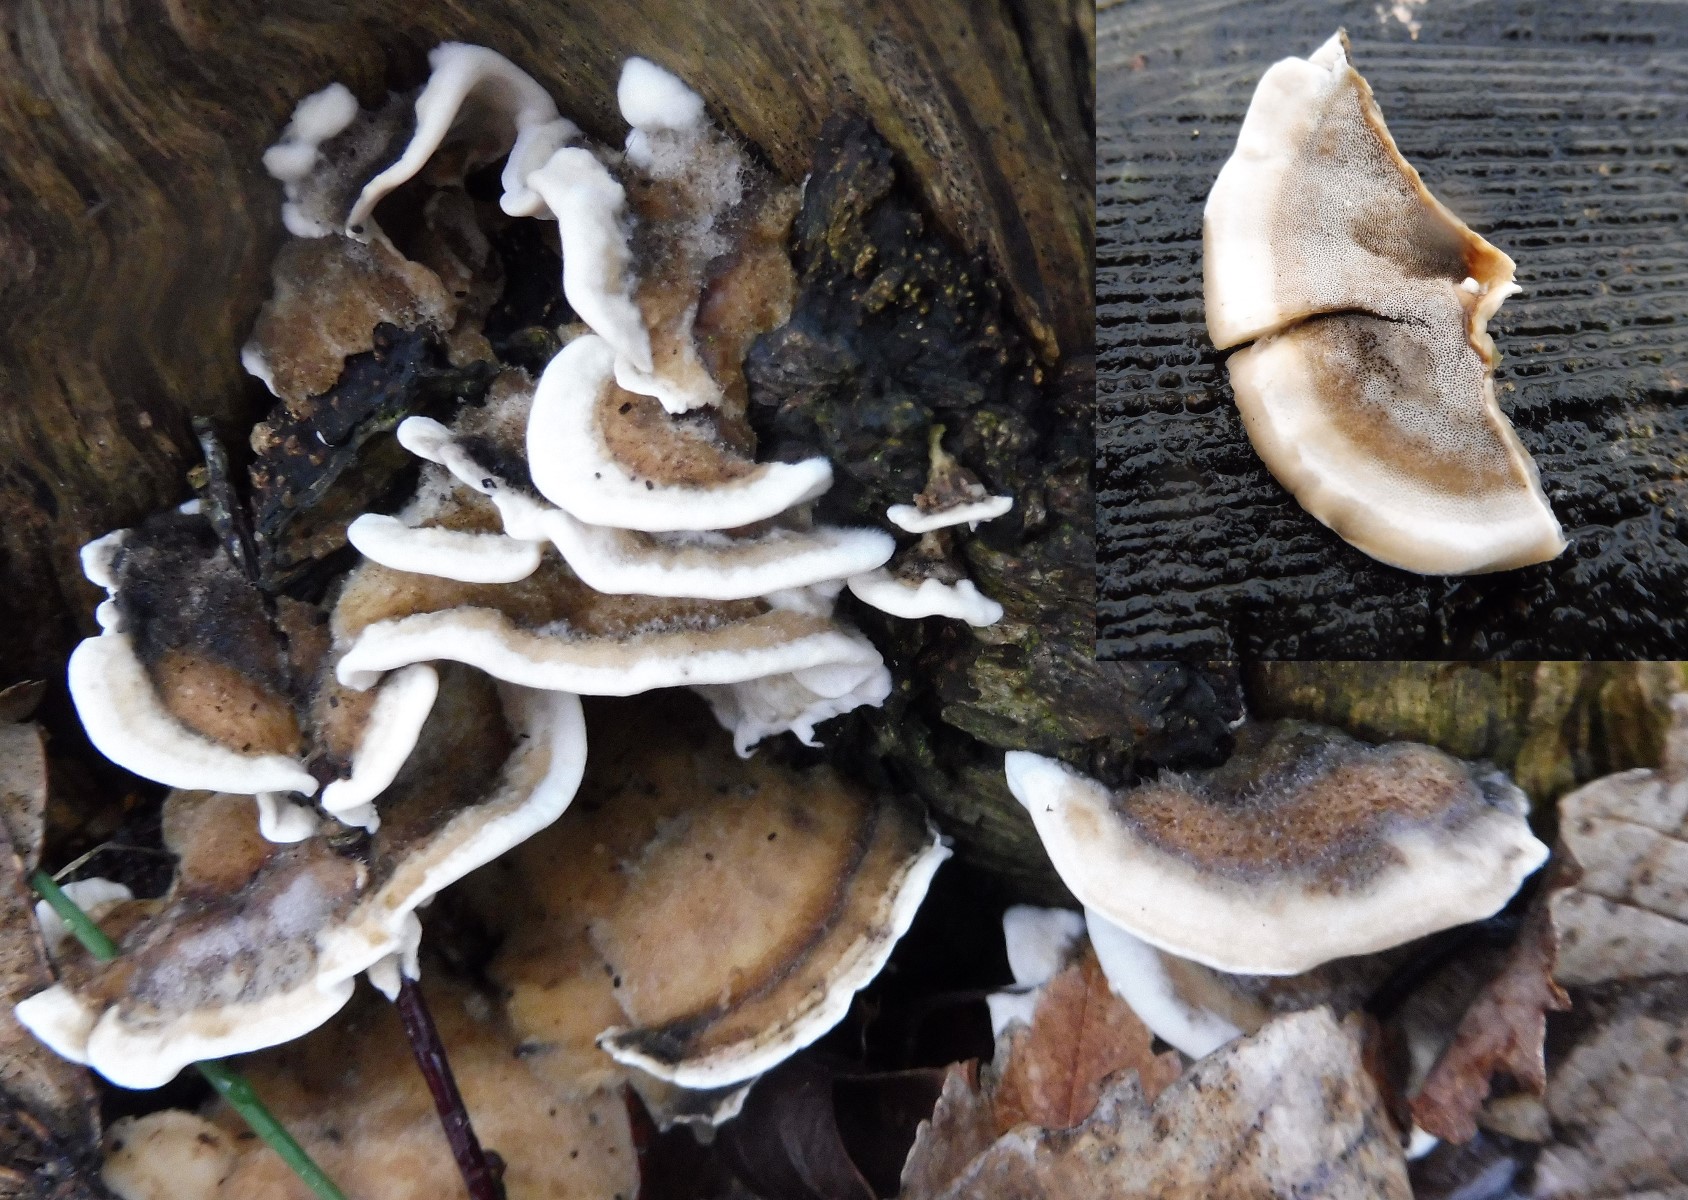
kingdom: Fungi
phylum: Basidiomycota
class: Agaricomycetes
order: Polyporales
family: Phanerochaetaceae
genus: Bjerkandera
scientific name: Bjerkandera adusta
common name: sveden sodporesvamp
